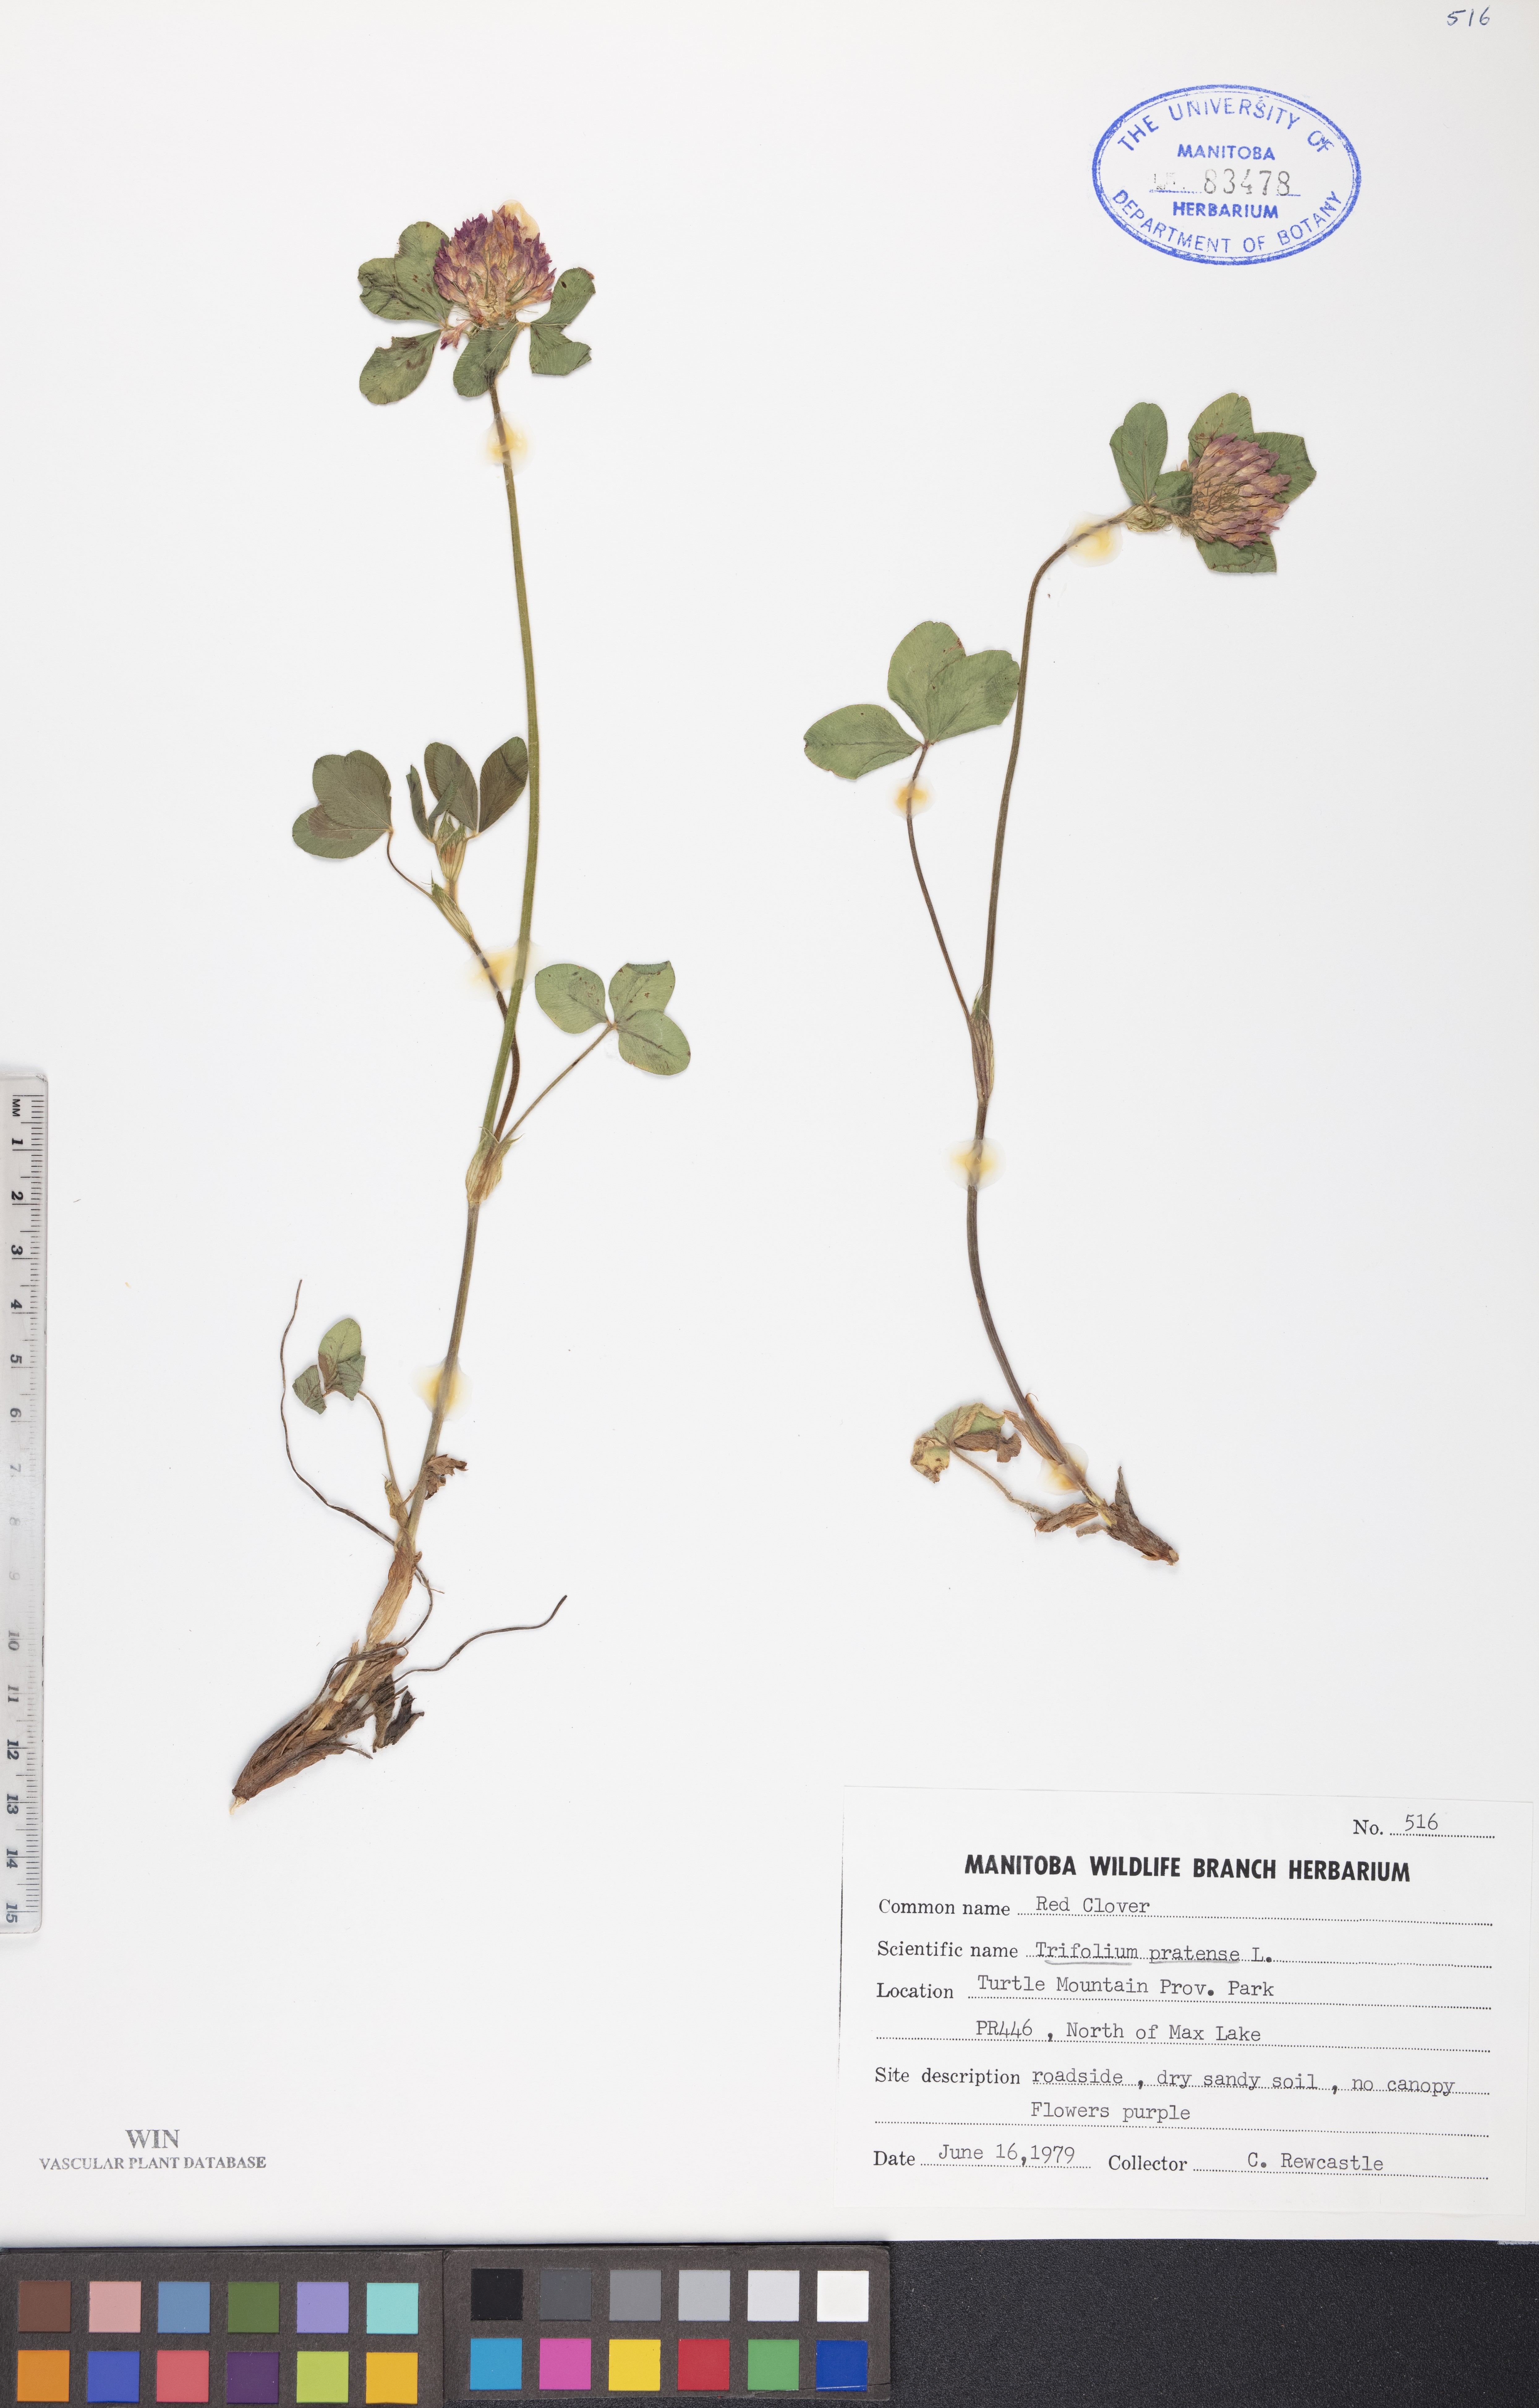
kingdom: Plantae
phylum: Tracheophyta
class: Magnoliopsida
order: Fabales
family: Fabaceae
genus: Trifolium
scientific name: Trifolium pratense
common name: Red clover
